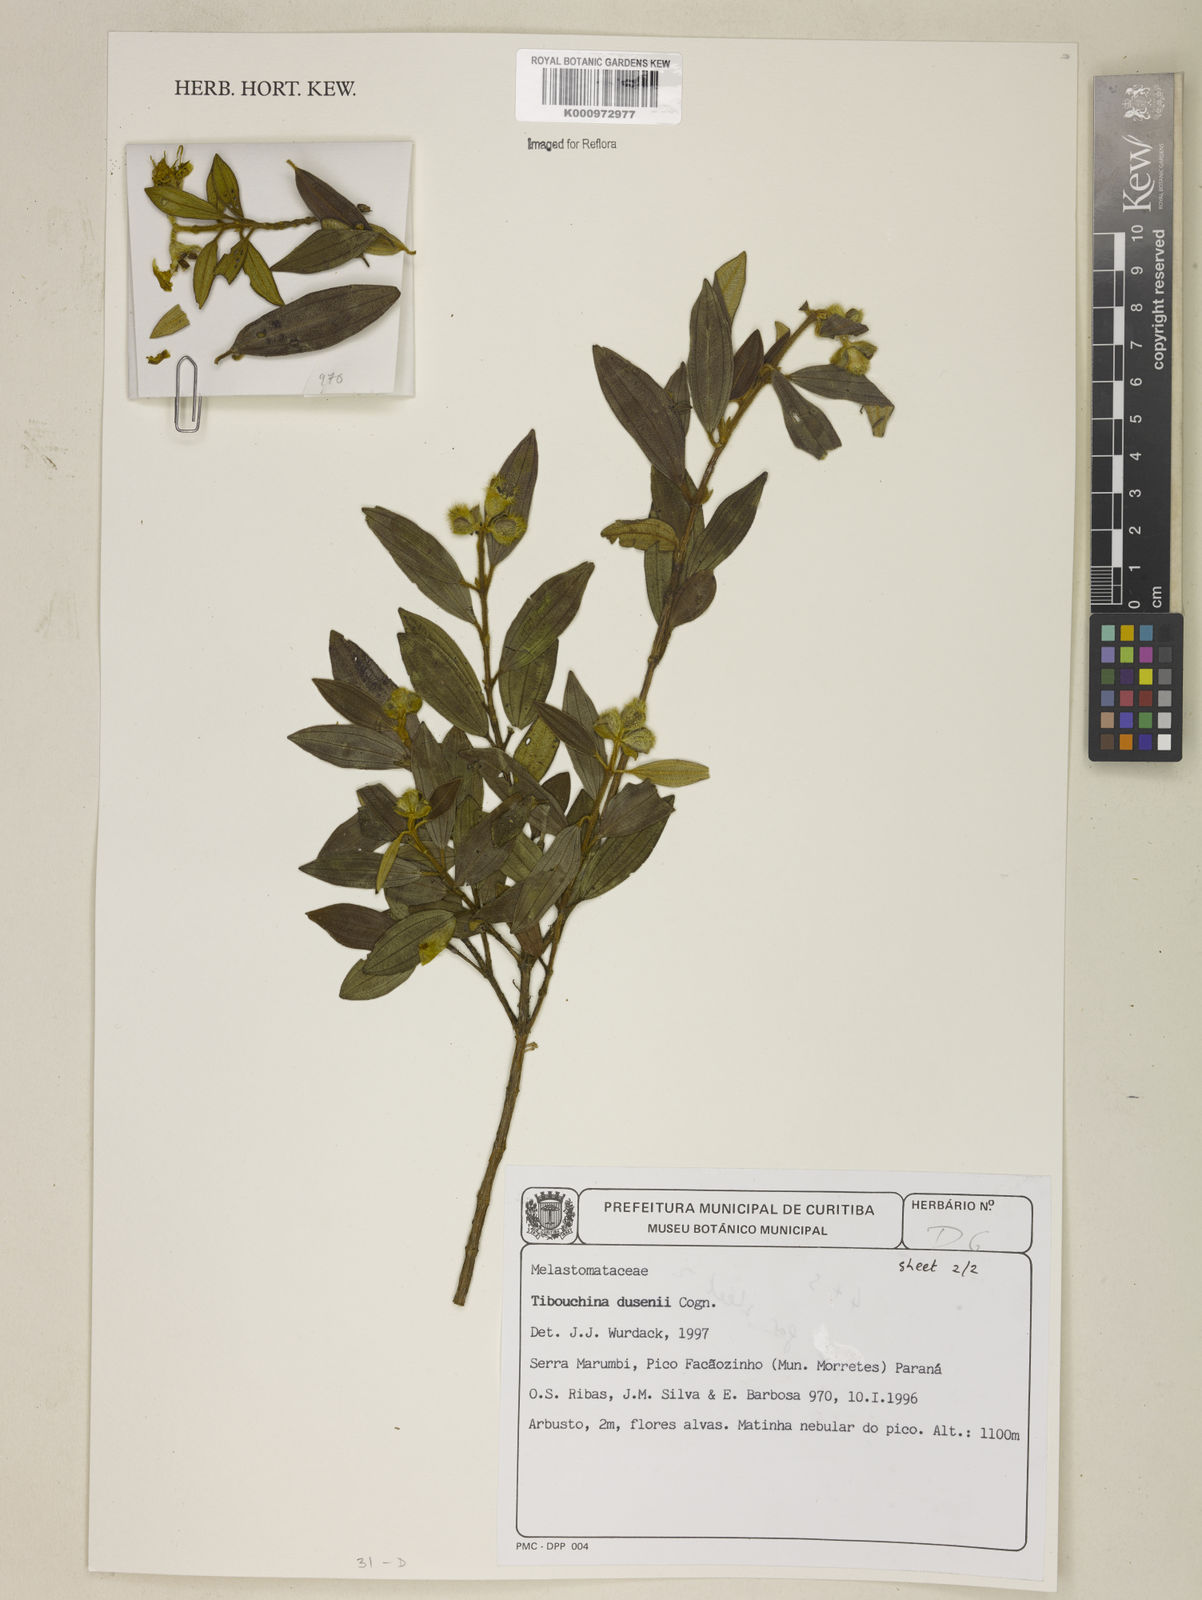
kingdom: Plantae
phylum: Tracheophyta
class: Magnoliopsida
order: Myrtales
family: Melastomataceae
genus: Pleroma
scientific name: Pleroma dusenii
